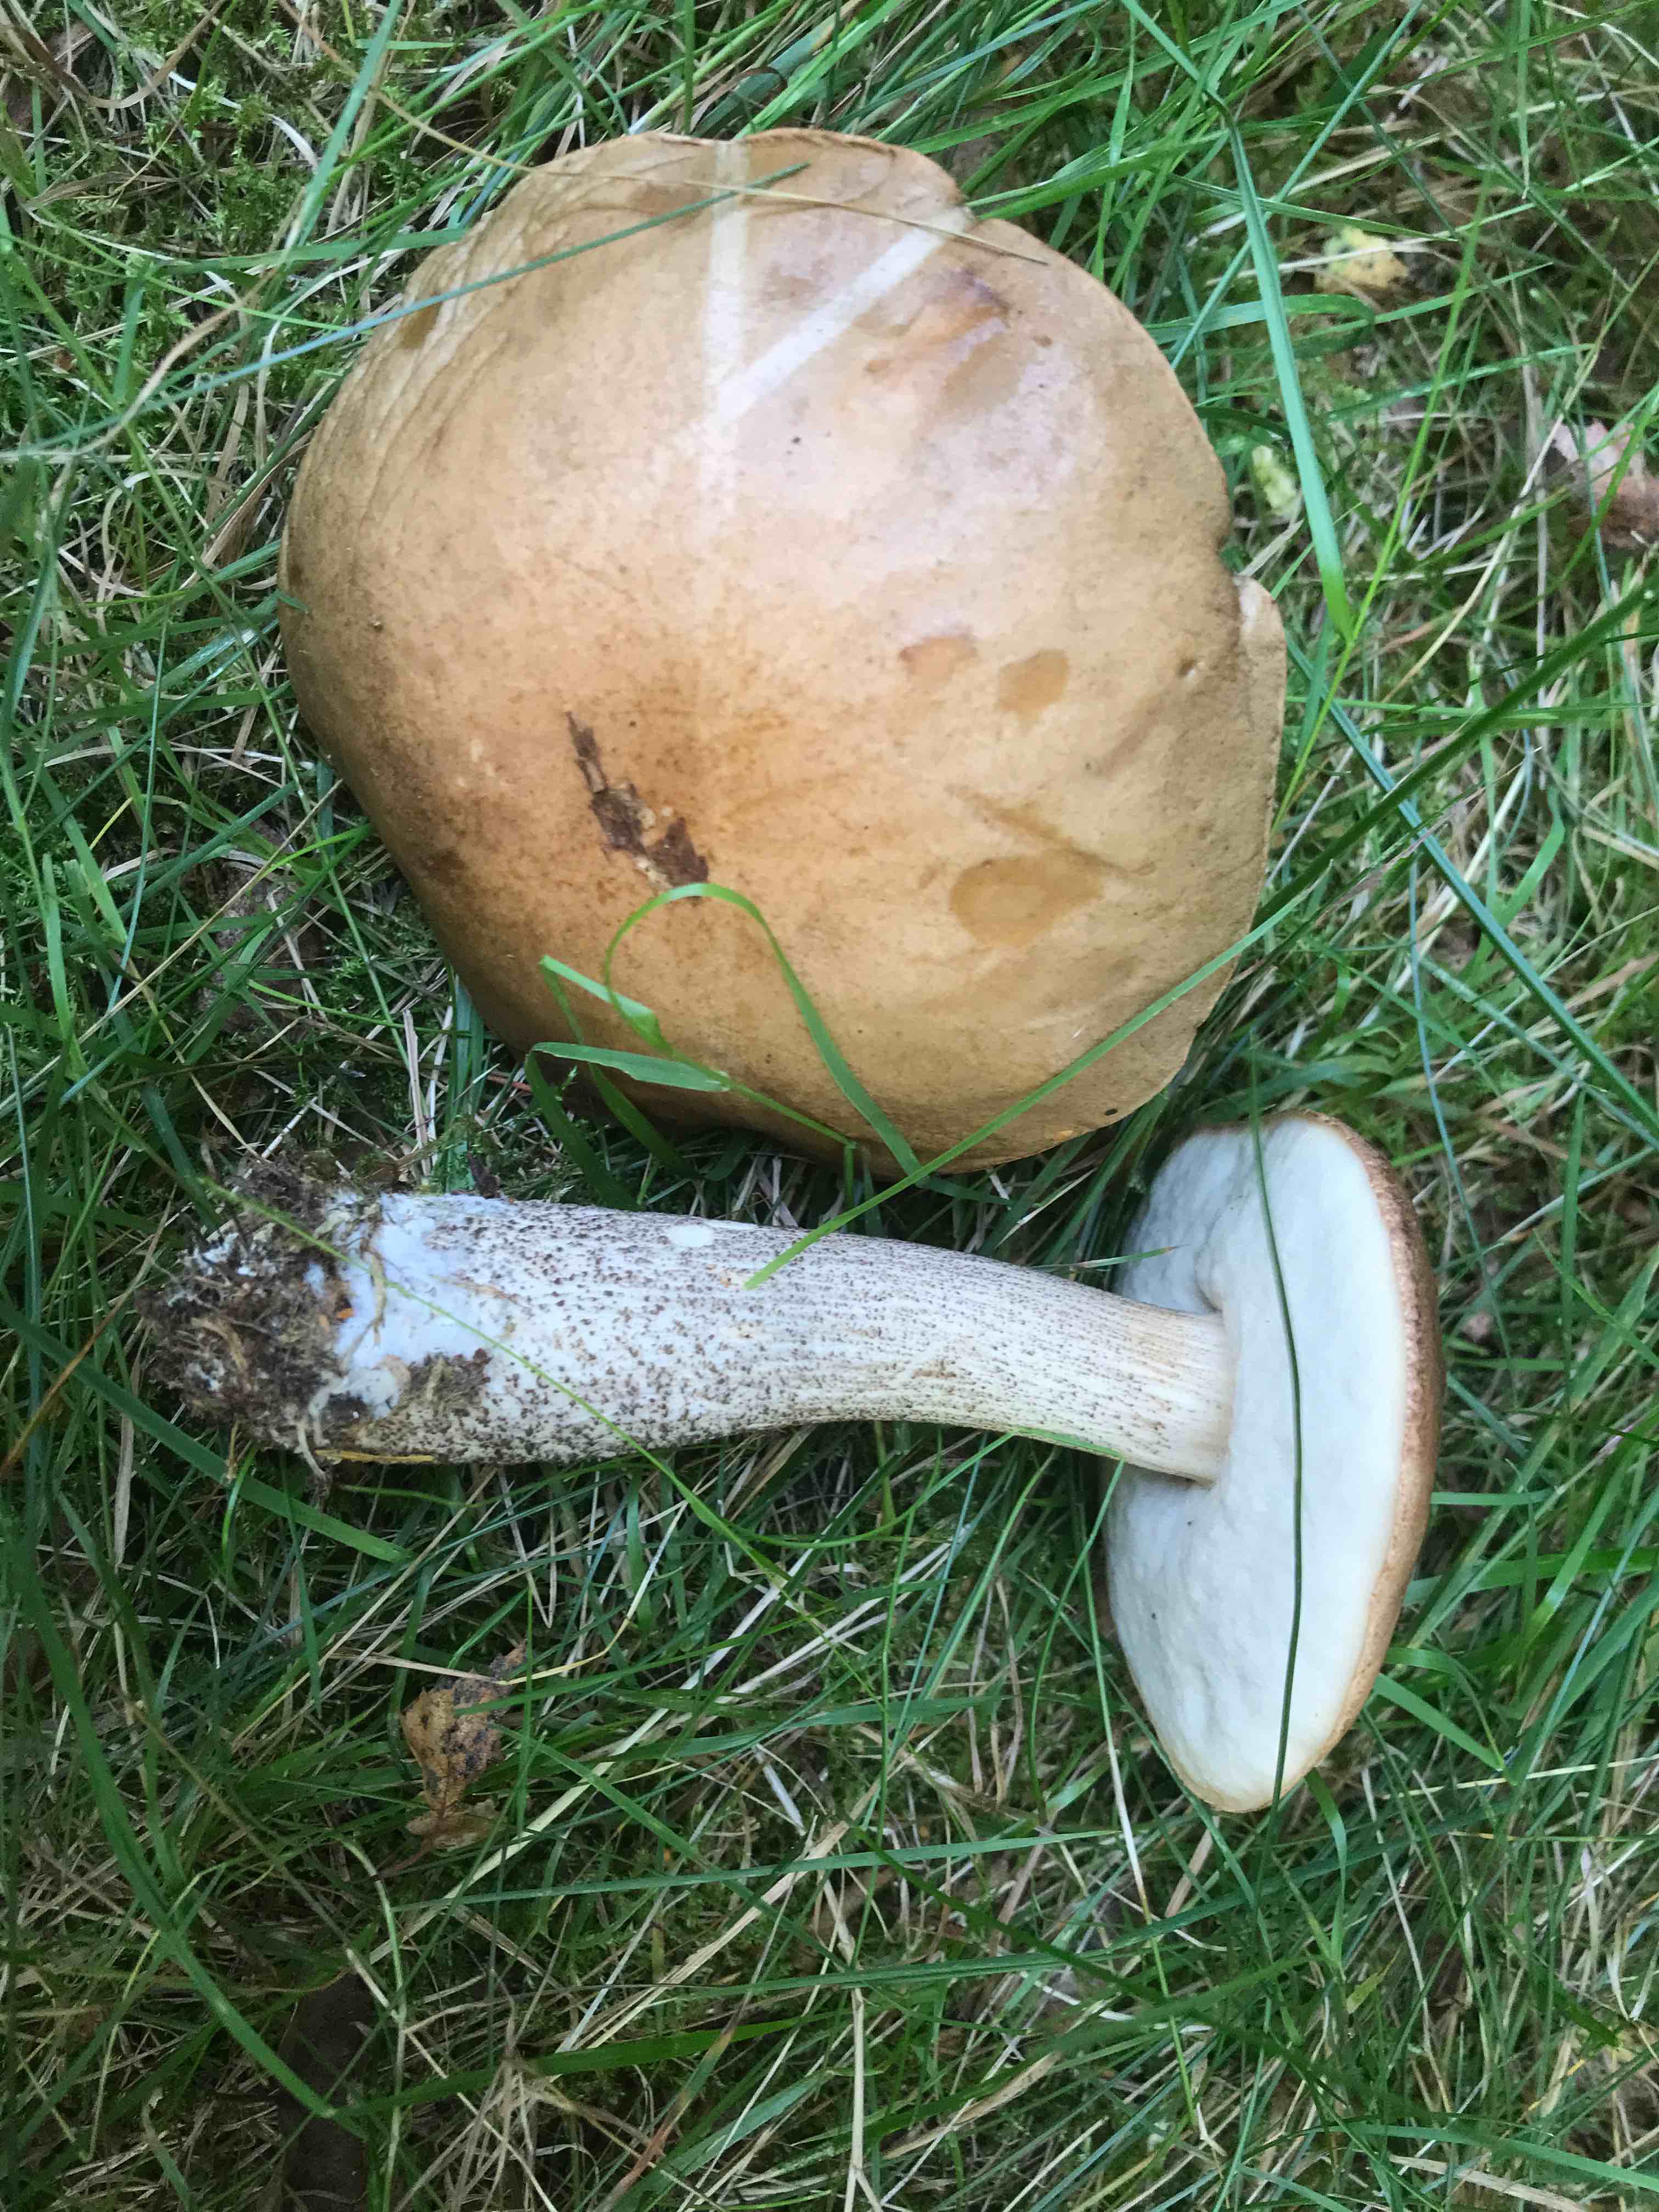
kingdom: Fungi
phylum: Basidiomycota
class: Agaricomycetes
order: Boletales
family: Boletaceae
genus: Leccinum
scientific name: Leccinum
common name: skælrørhat
